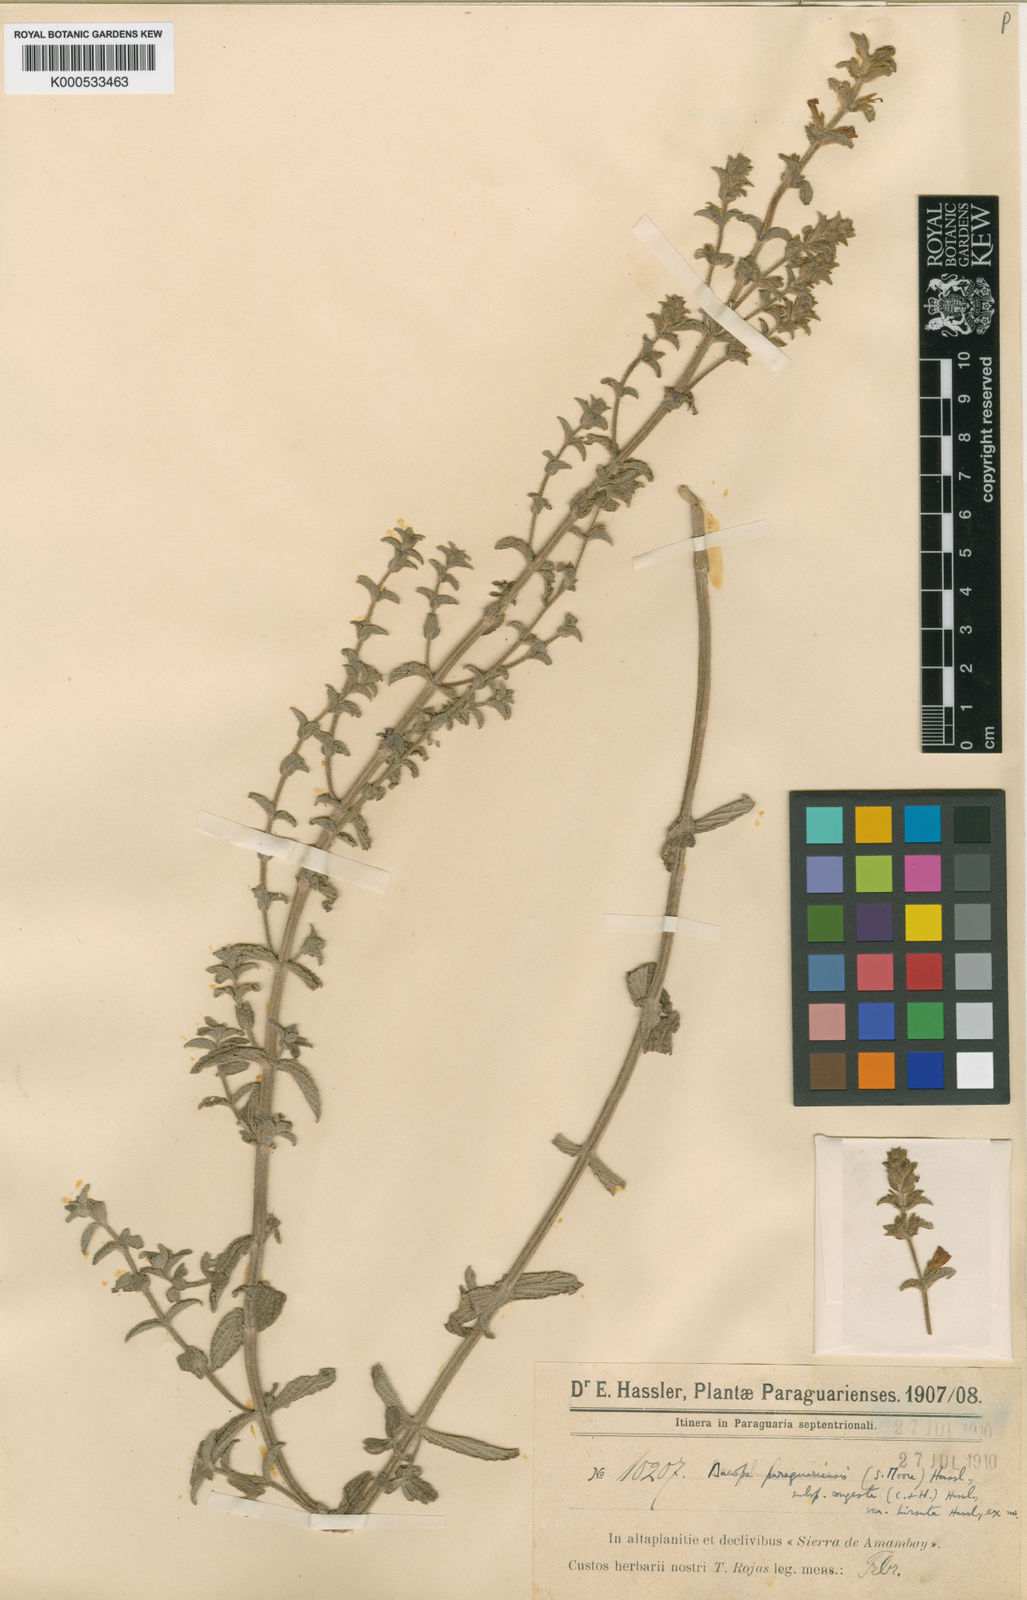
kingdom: Plantae
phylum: Tracheophyta
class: Magnoliopsida
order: Lamiales
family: Plantaginaceae
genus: Bacopa
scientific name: Bacopa congesta
